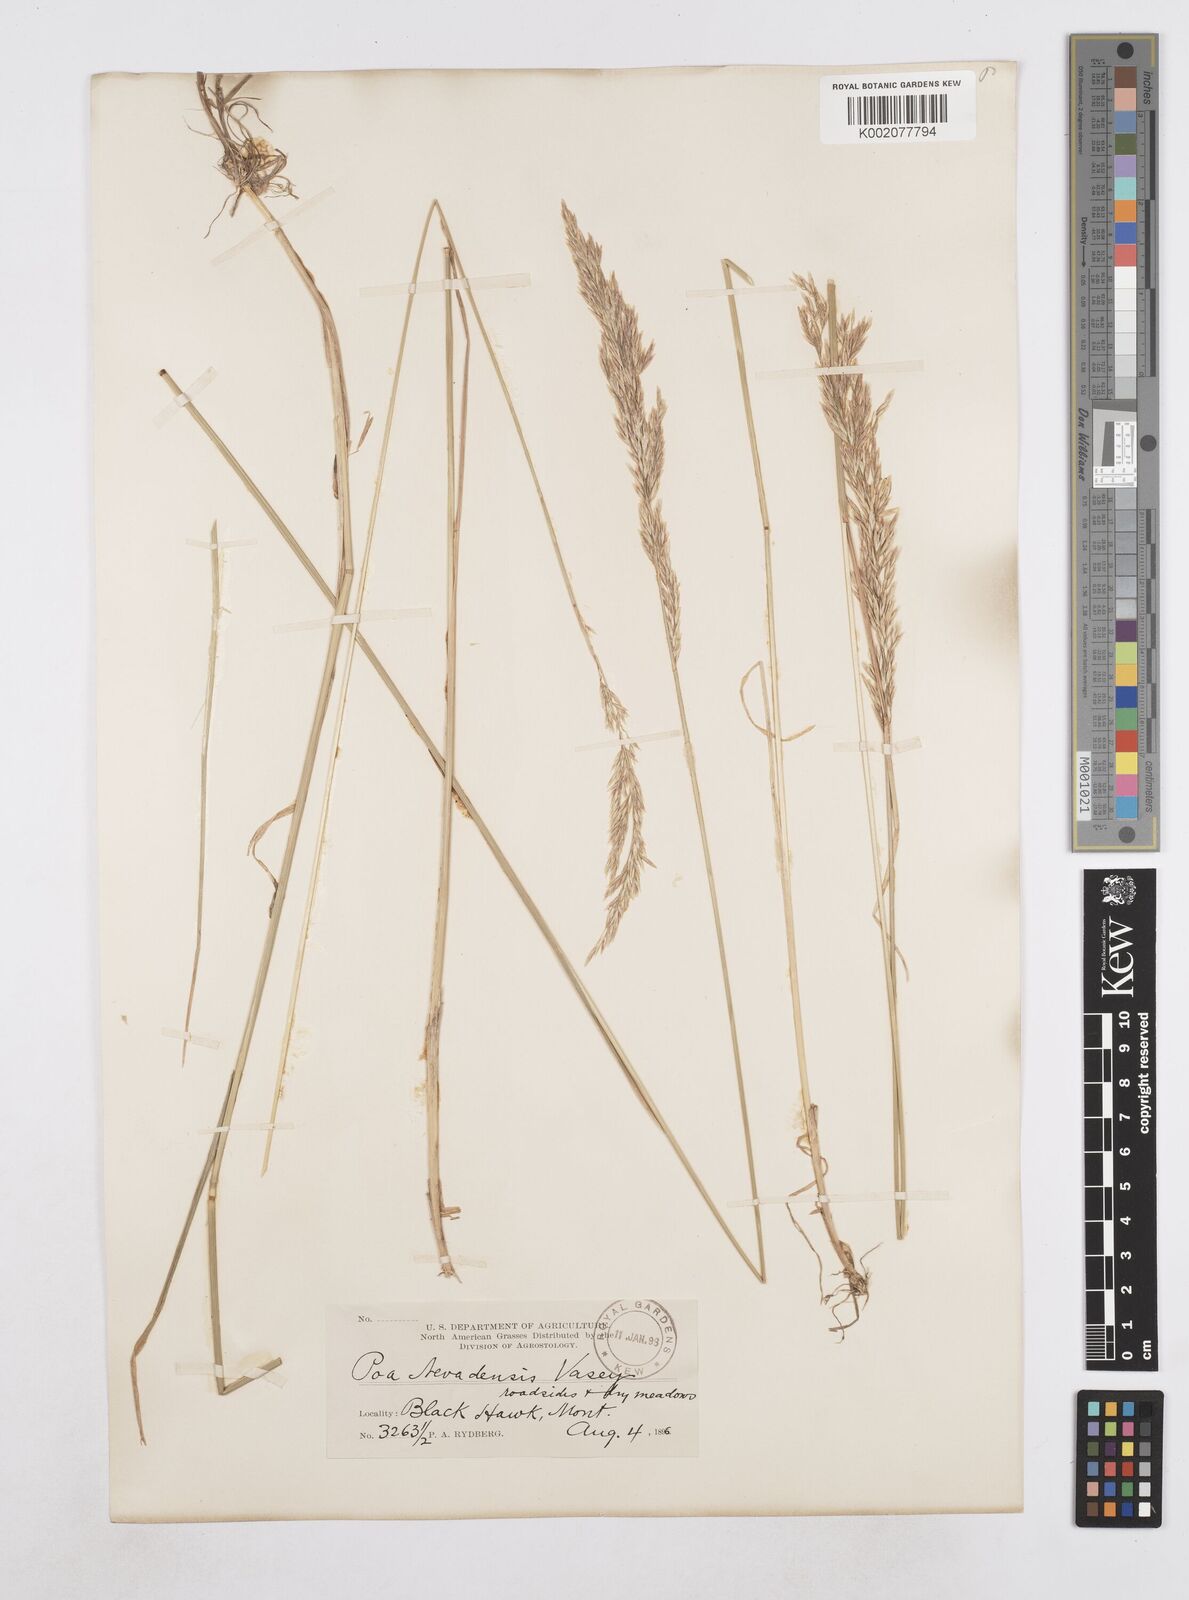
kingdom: Plantae
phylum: Tracheophyta
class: Liliopsida
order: Poales
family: Poaceae
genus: Poa
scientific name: Poa secunda
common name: Sandberg bluegrass
